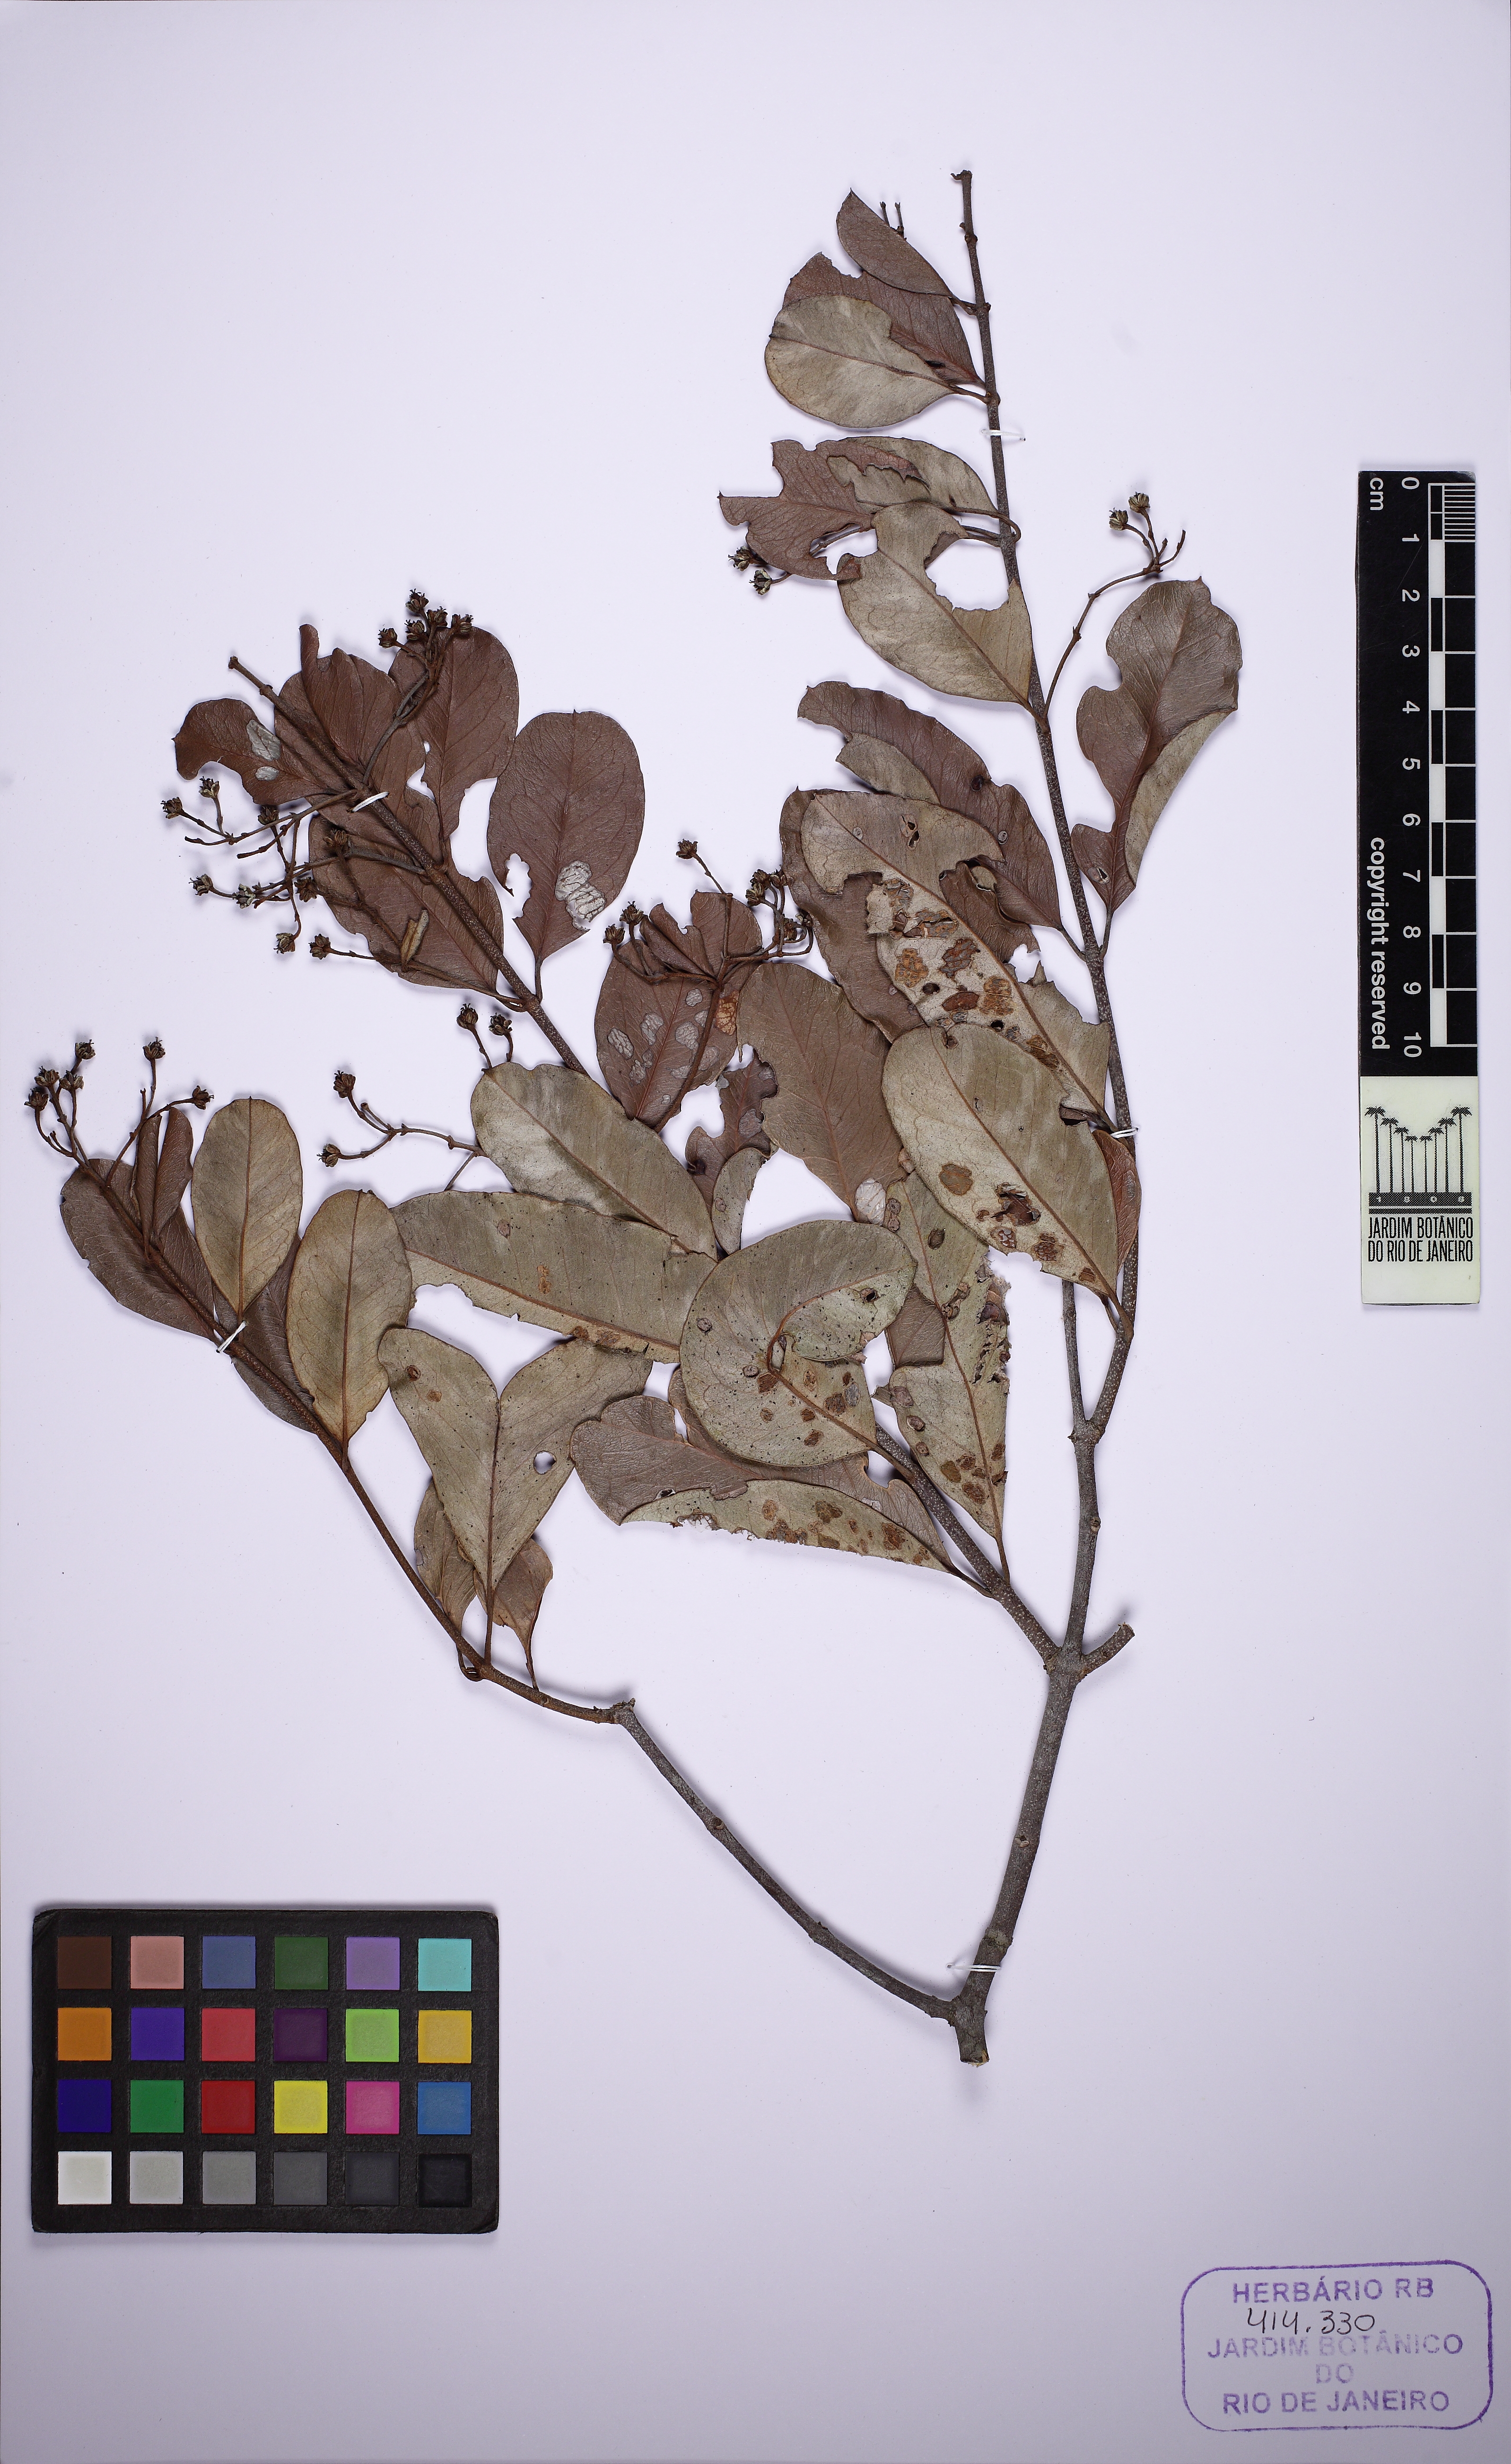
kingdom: Plantae
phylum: Tracheophyta
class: Magnoliopsida
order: Malpighiales
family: Malpighiaceae
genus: Heteropterys
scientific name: Heteropterys coleoptera
